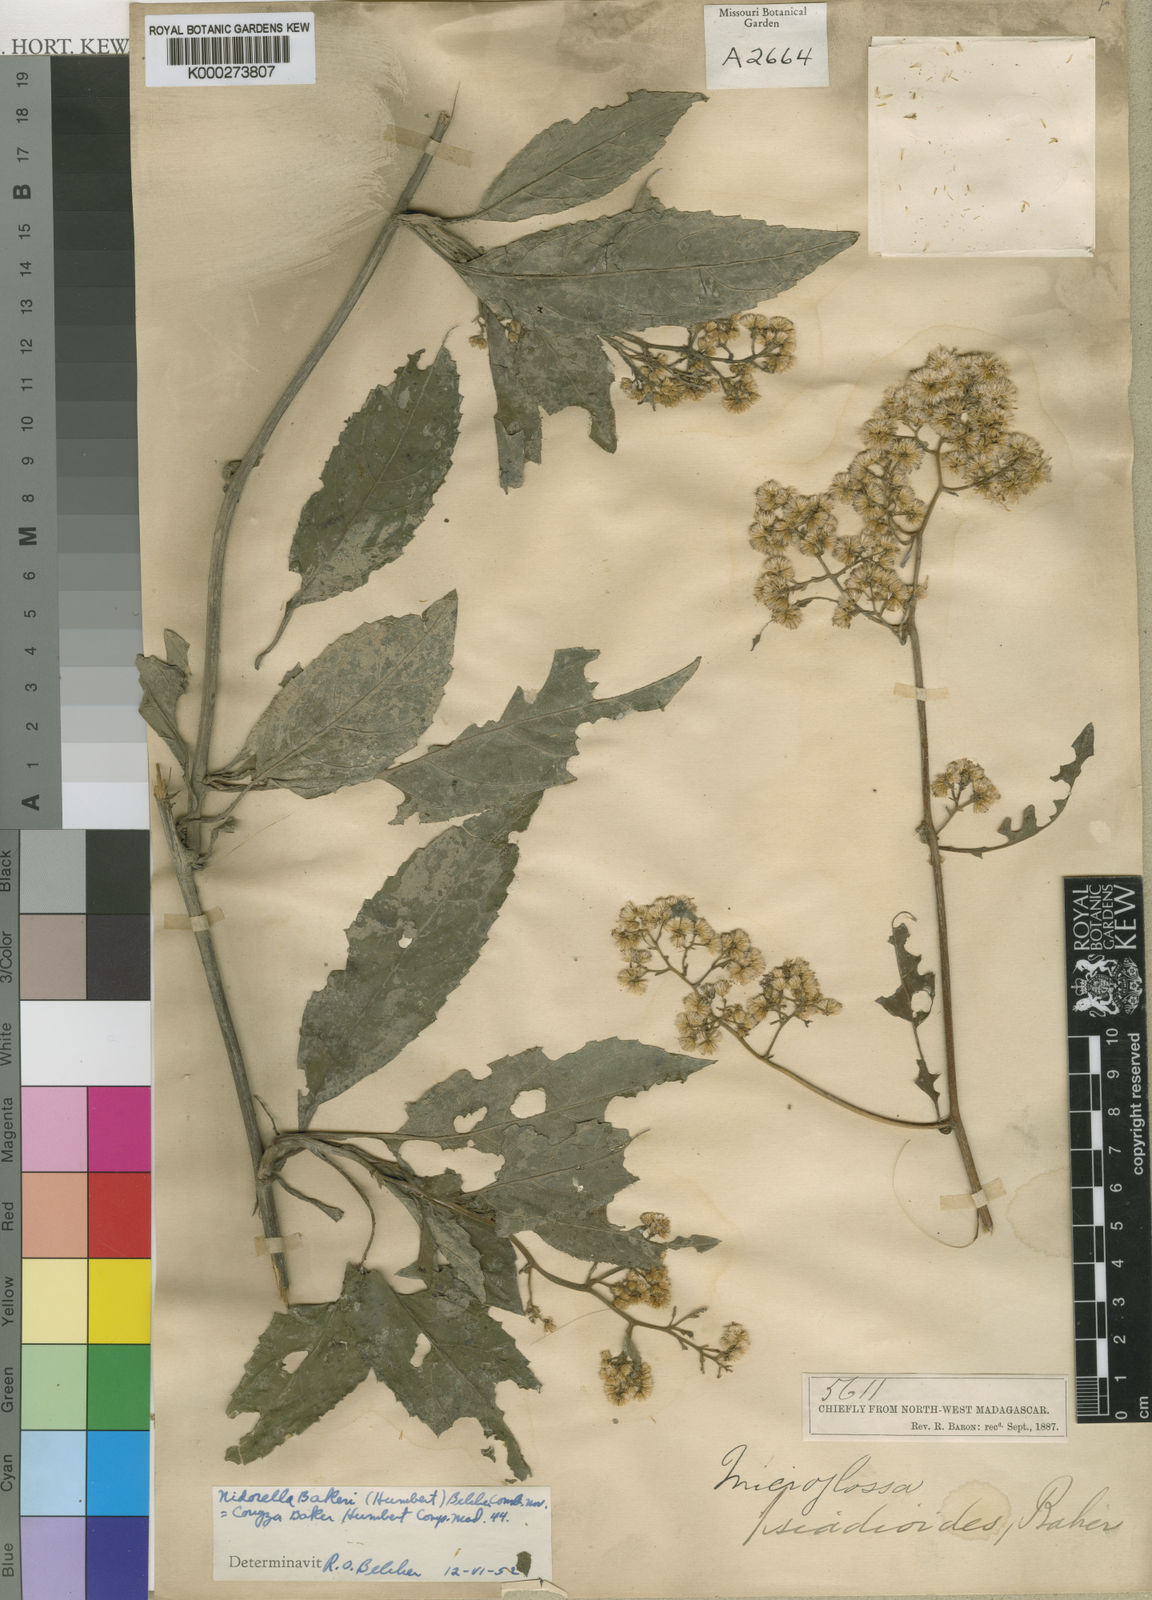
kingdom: Plantae
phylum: Tracheophyta
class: Magnoliopsida
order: Asterales
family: Asteraceae
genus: Conyza
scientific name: Conyza
